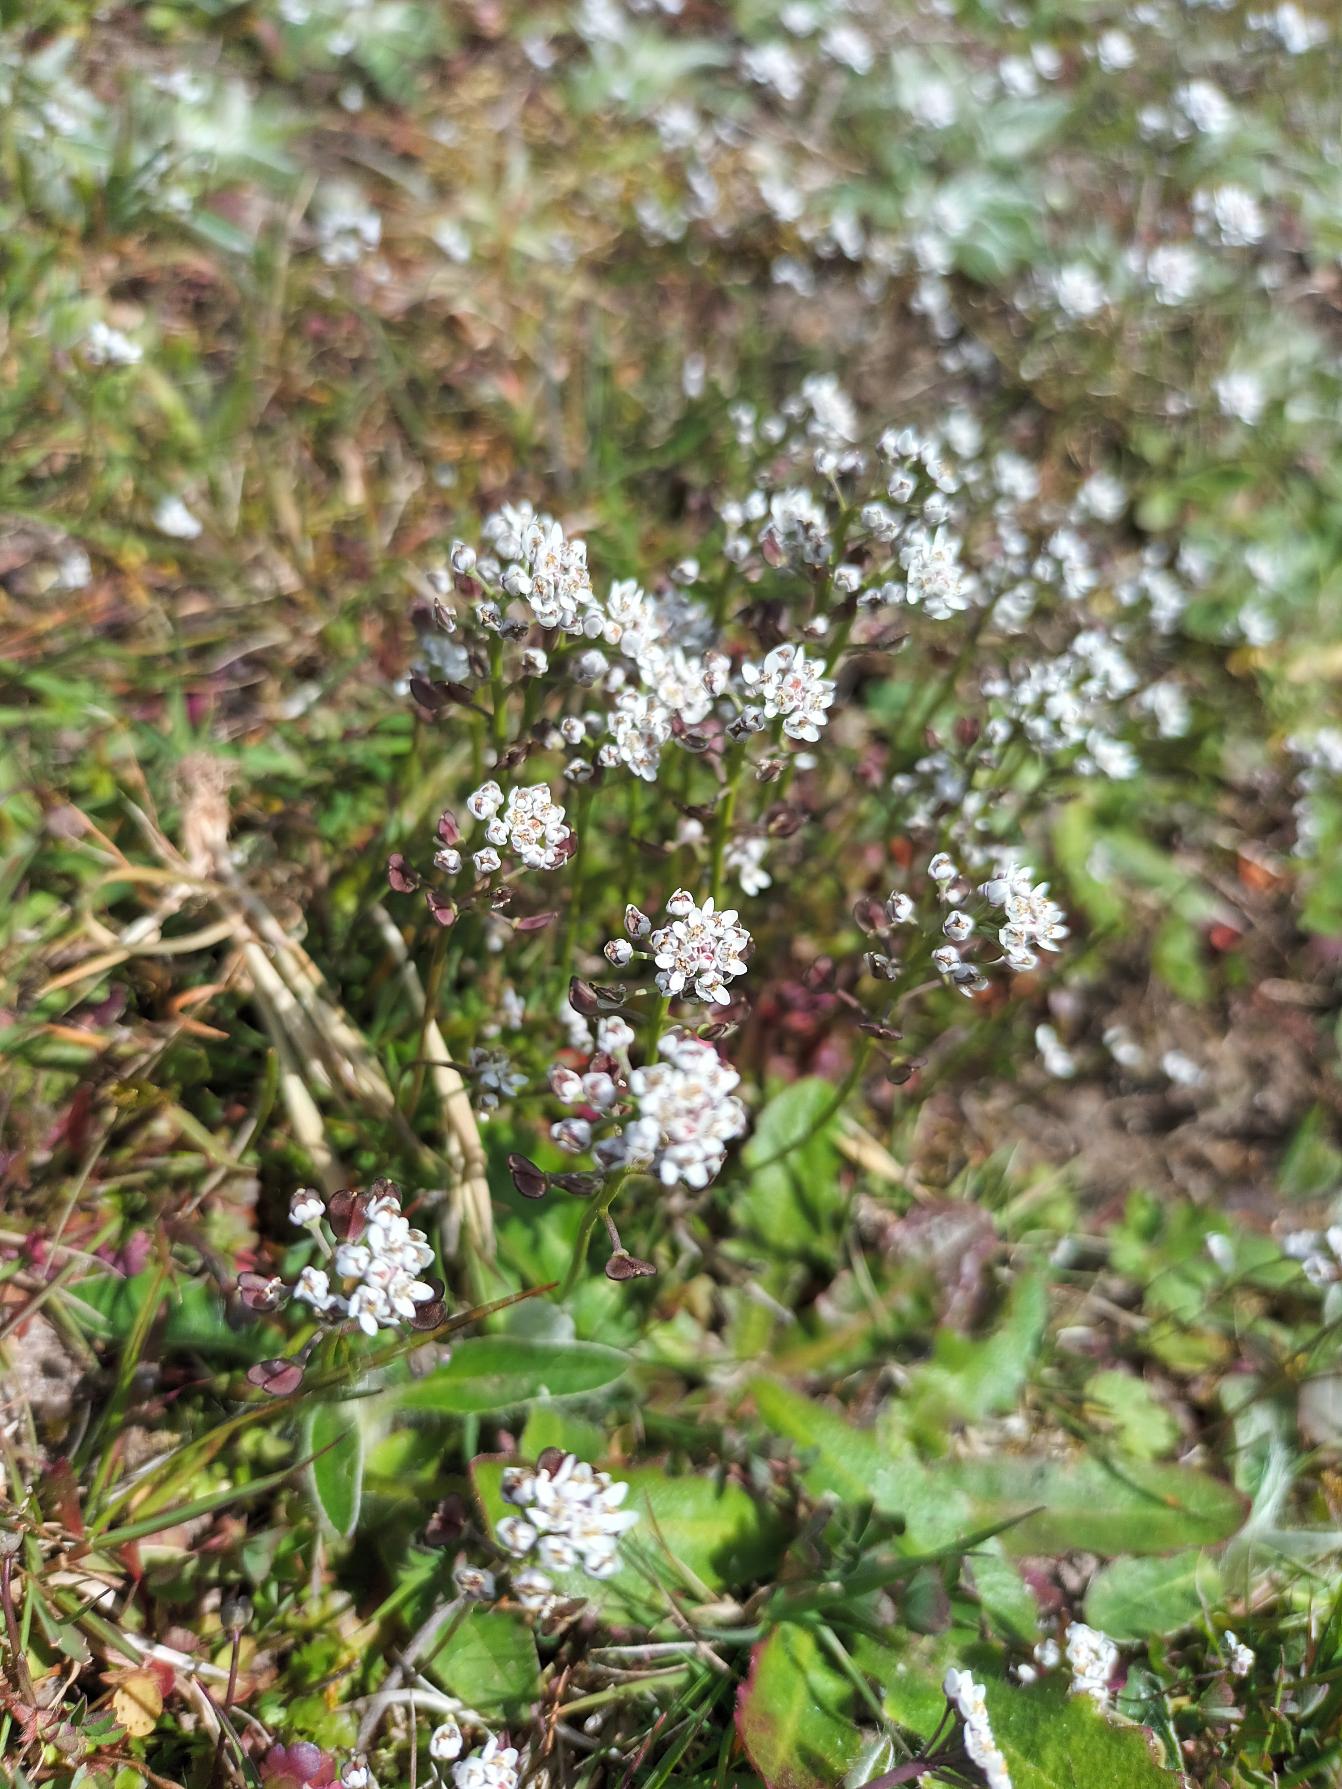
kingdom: Plantae
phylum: Tracheophyta
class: Magnoliopsida
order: Brassicales
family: Brassicaceae
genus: Teesdalia
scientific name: Teesdalia nudicaulis
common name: Flipkrave
